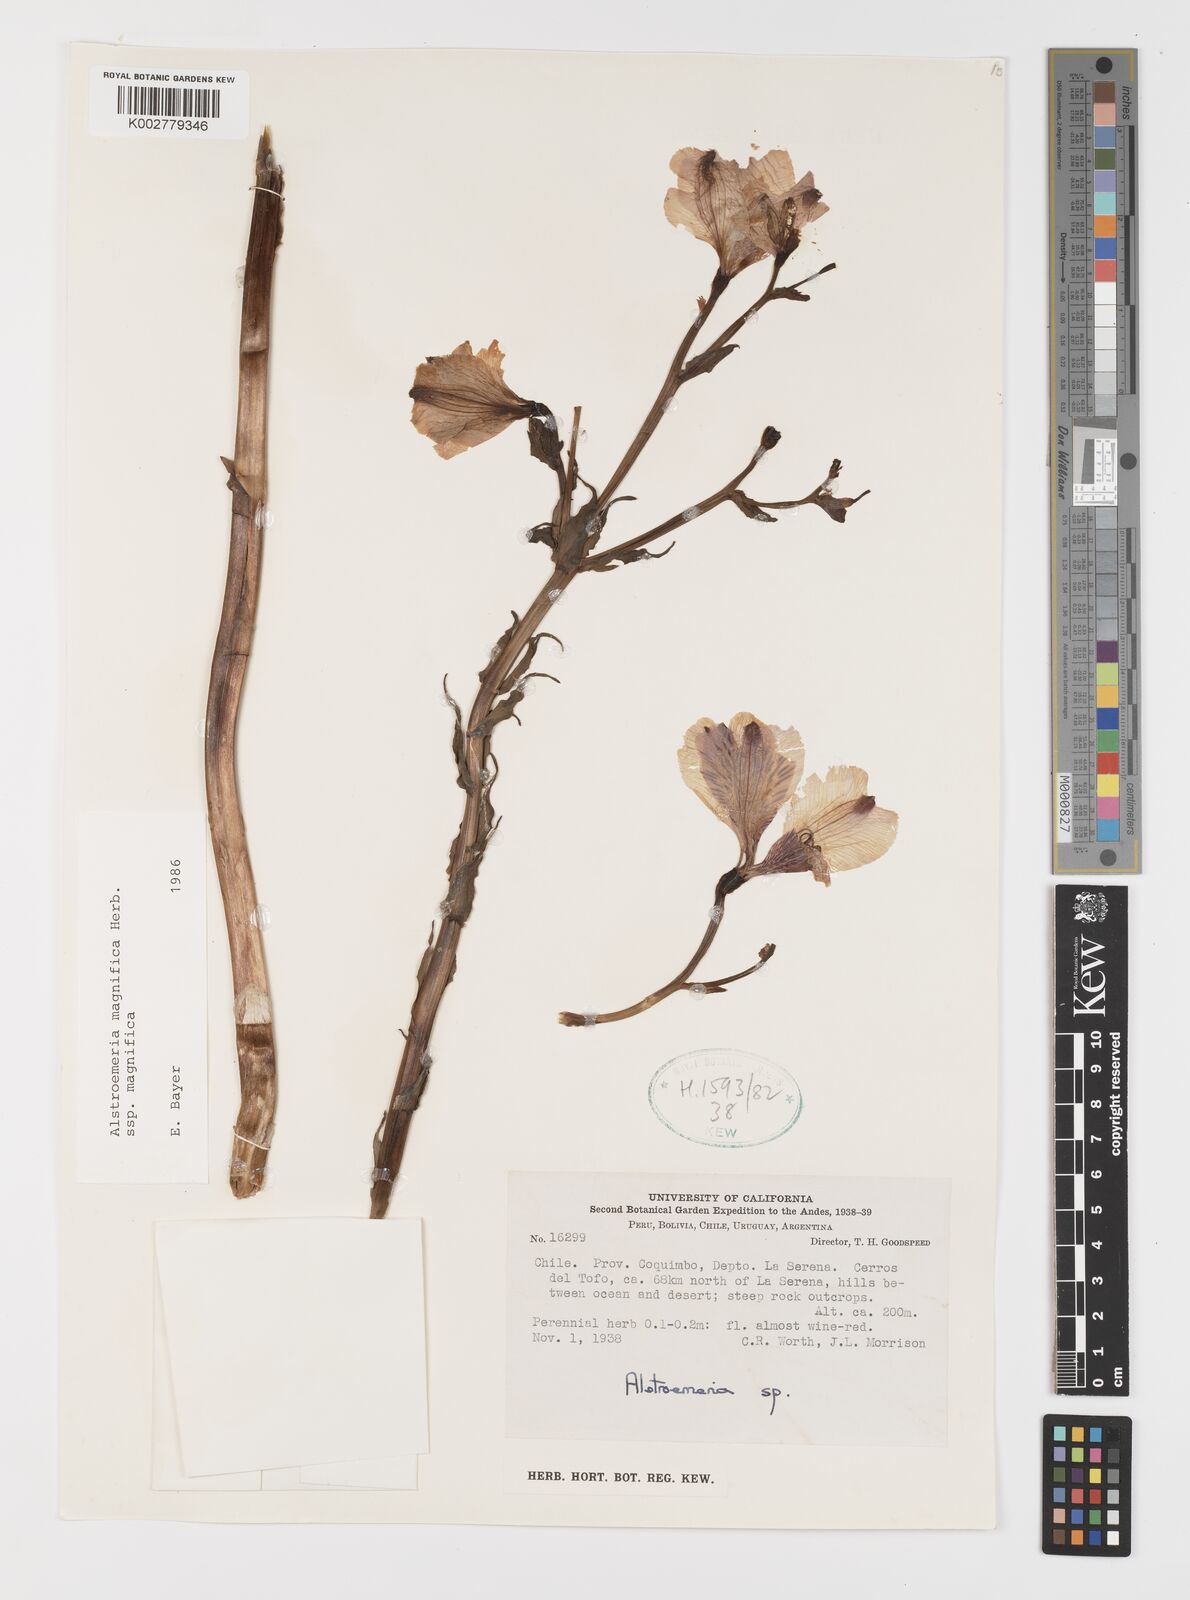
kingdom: Plantae
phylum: Tracheophyta
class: Liliopsida
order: Liliales
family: Alstroemeriaceae
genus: Alstroemeria
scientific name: Alstroemeria magnifica
